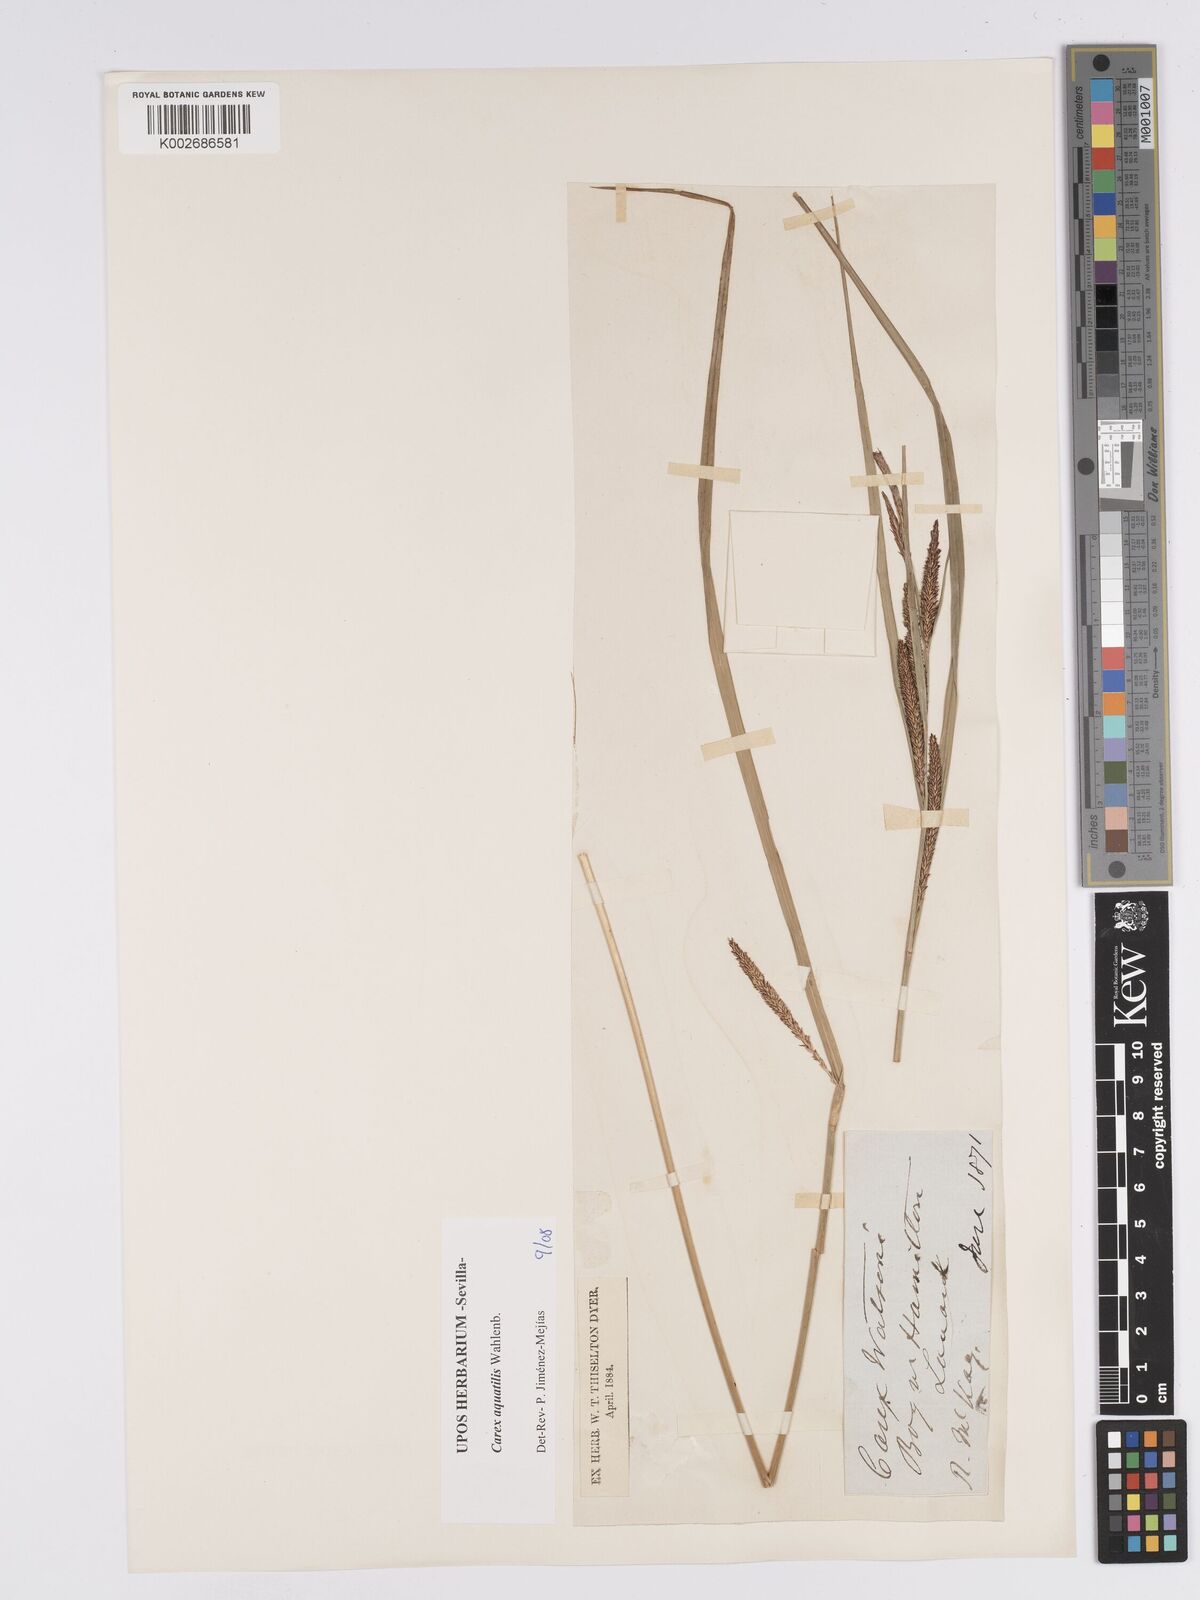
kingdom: Plantae
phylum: Tracheophyta
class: Liliopsida
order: Poales
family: Cyperaceae
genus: Carex
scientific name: Carex aquatilis
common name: Water sedge
